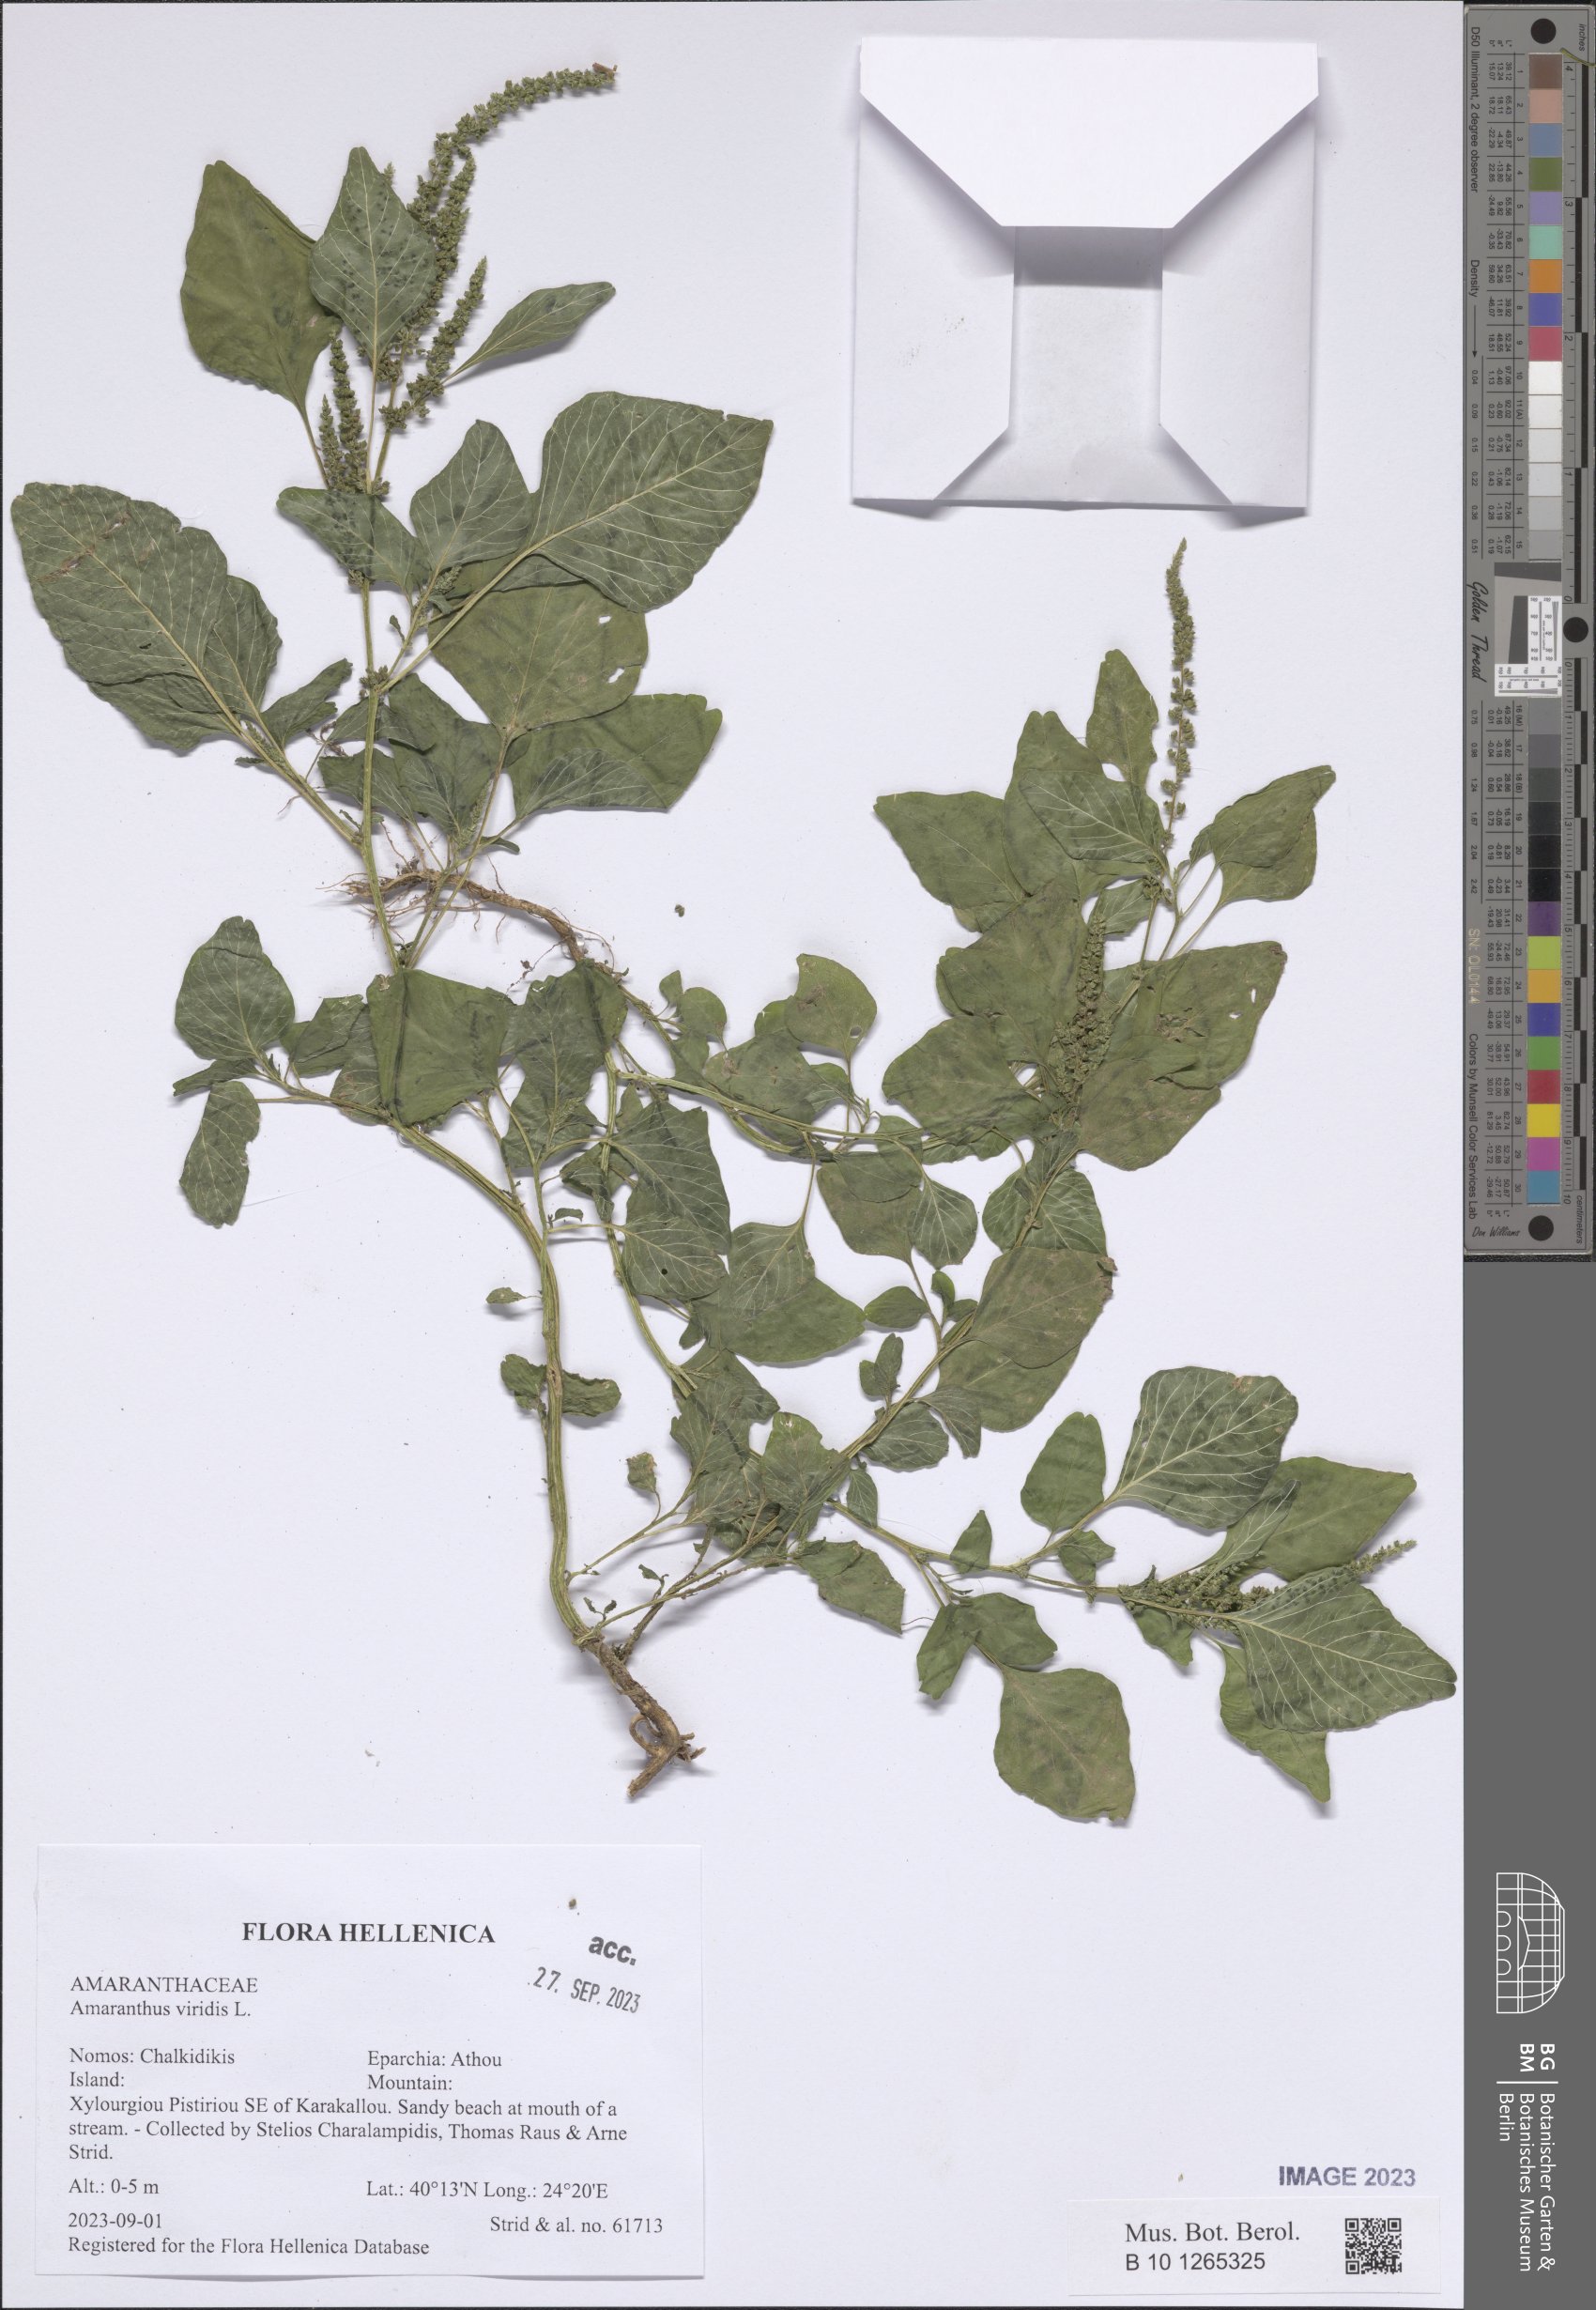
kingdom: Plantae
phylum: Tracheophyta
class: Magnoliopsida
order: Caryophyllales
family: Amaranthaceae
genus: Amaranthus
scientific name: Amaranthus viridis
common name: Slender amaranth
